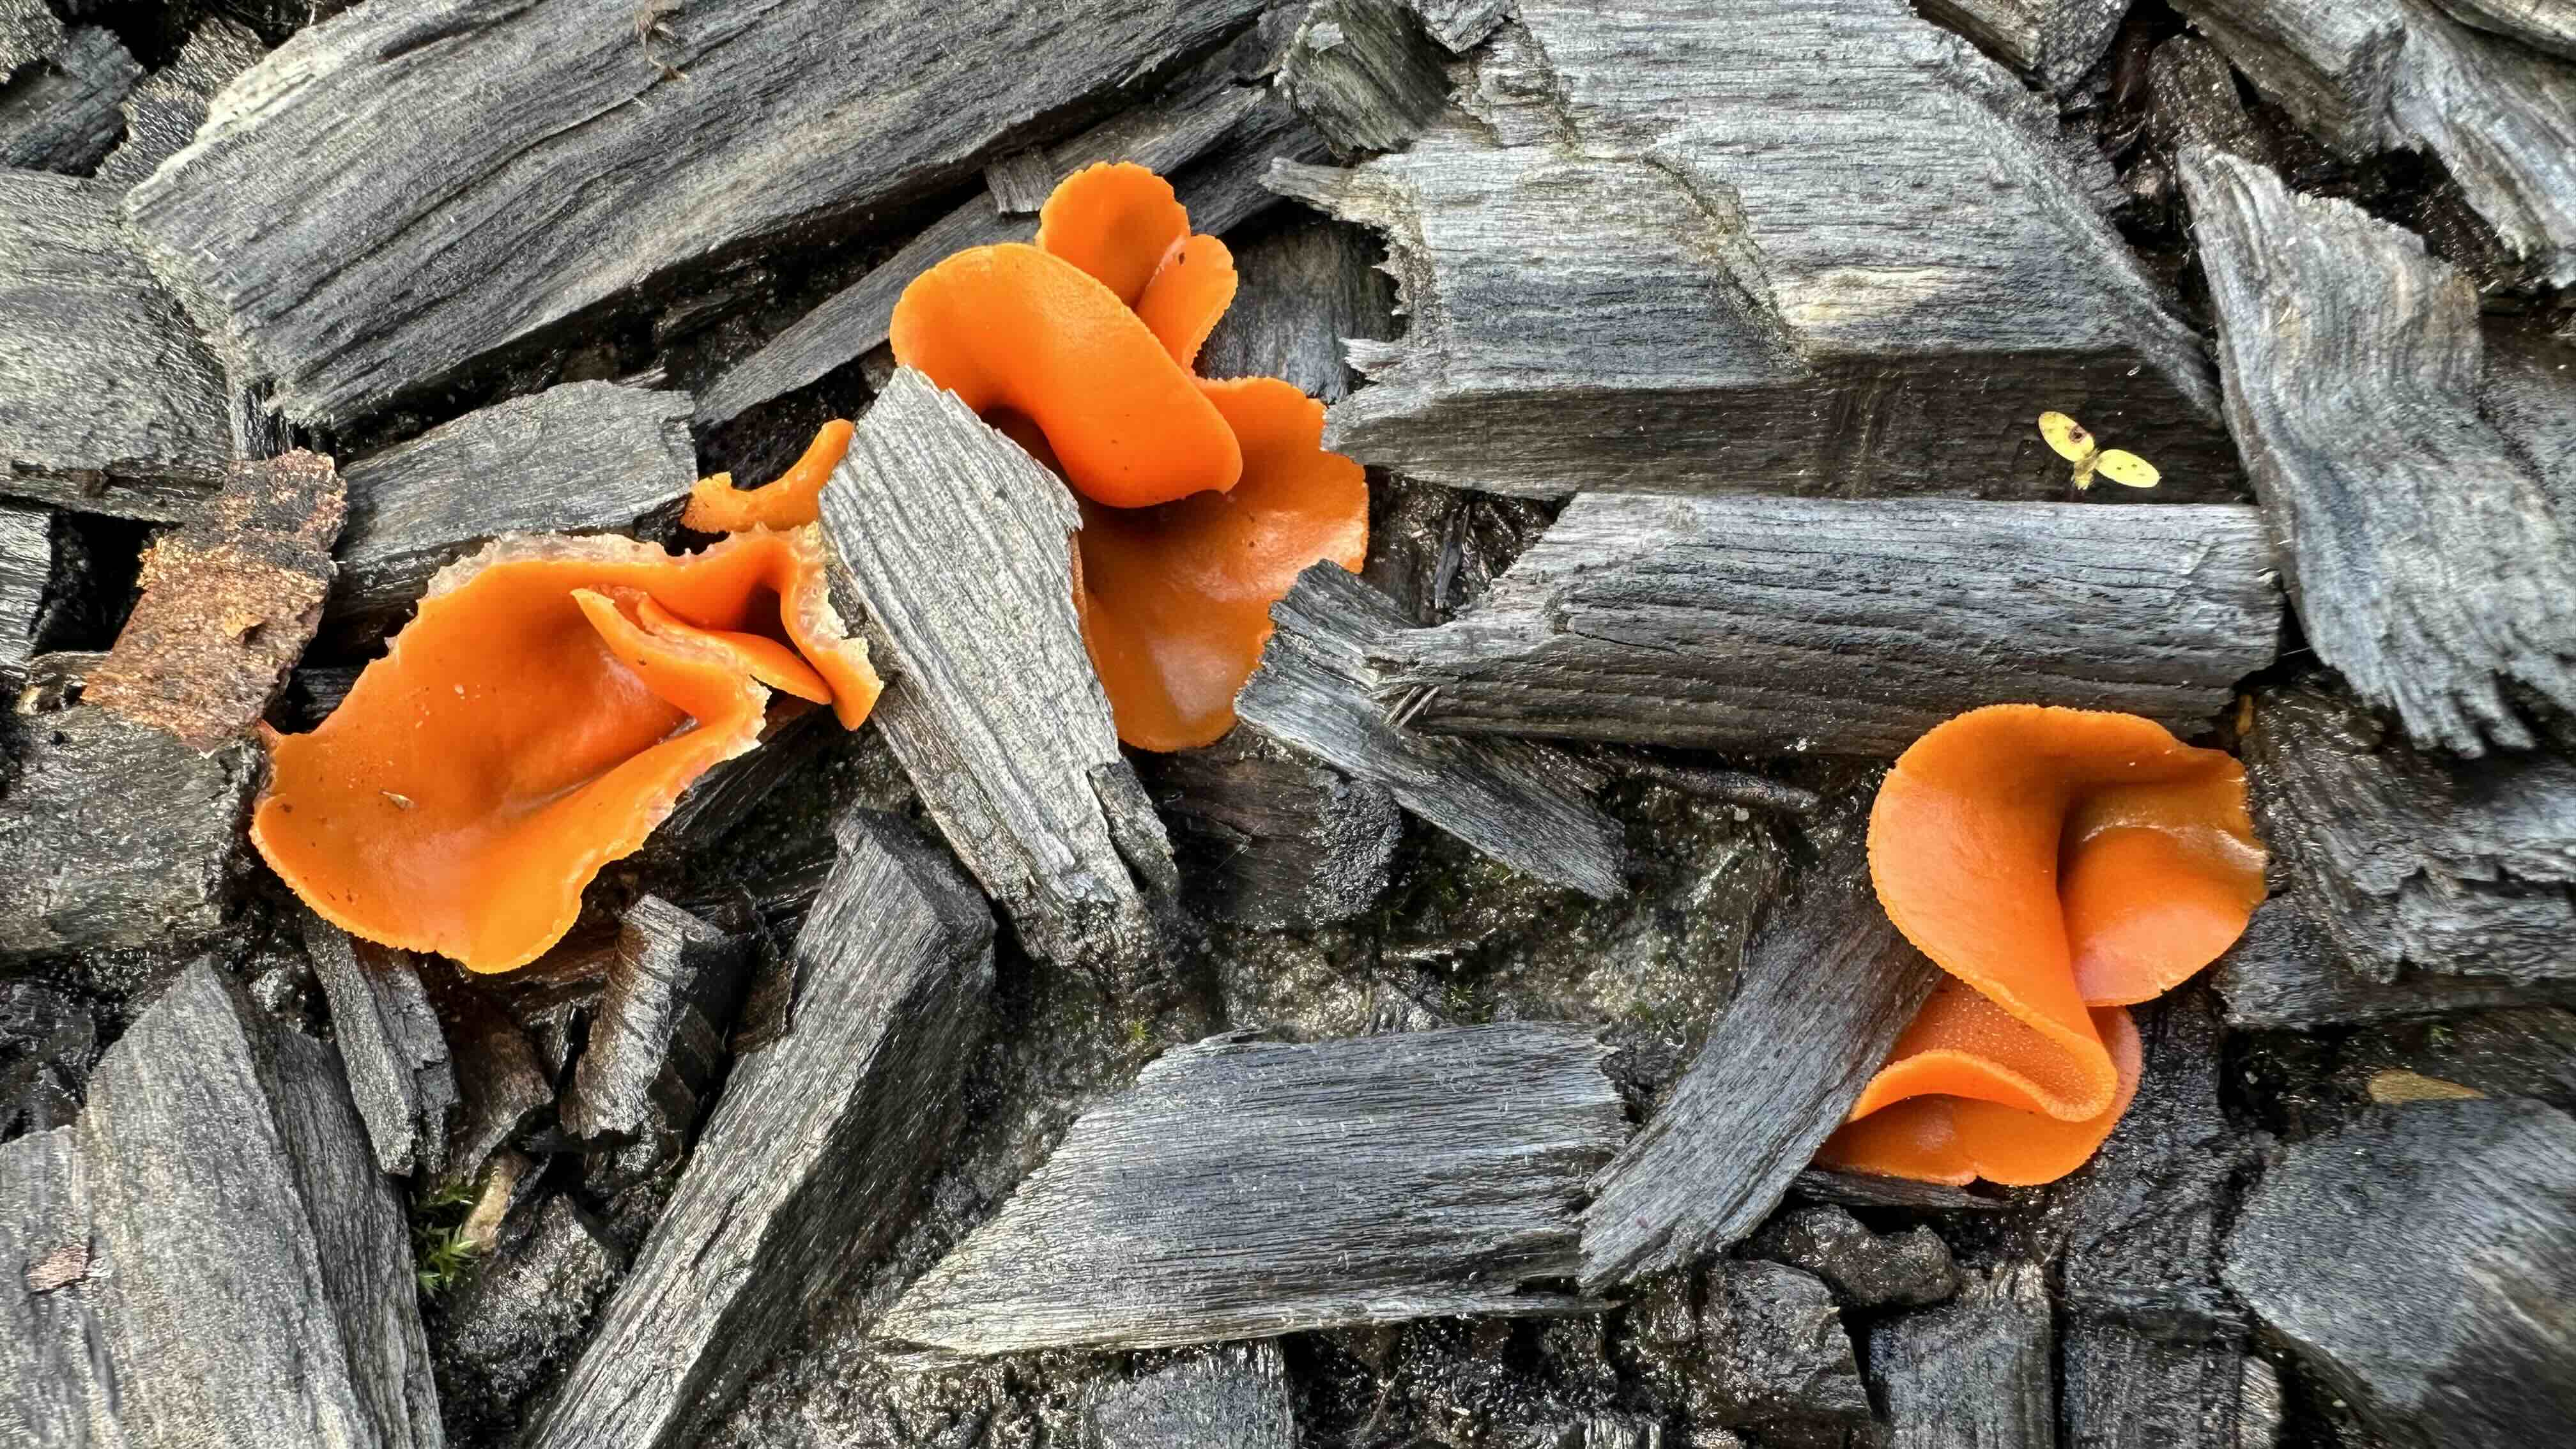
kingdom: Fungi
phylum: Ascomycota
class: Pezizomycetes
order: Pezizales
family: Pyronemataceae
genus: Aleuria
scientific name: Aleuria aurantia
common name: almindelig orangebæger
